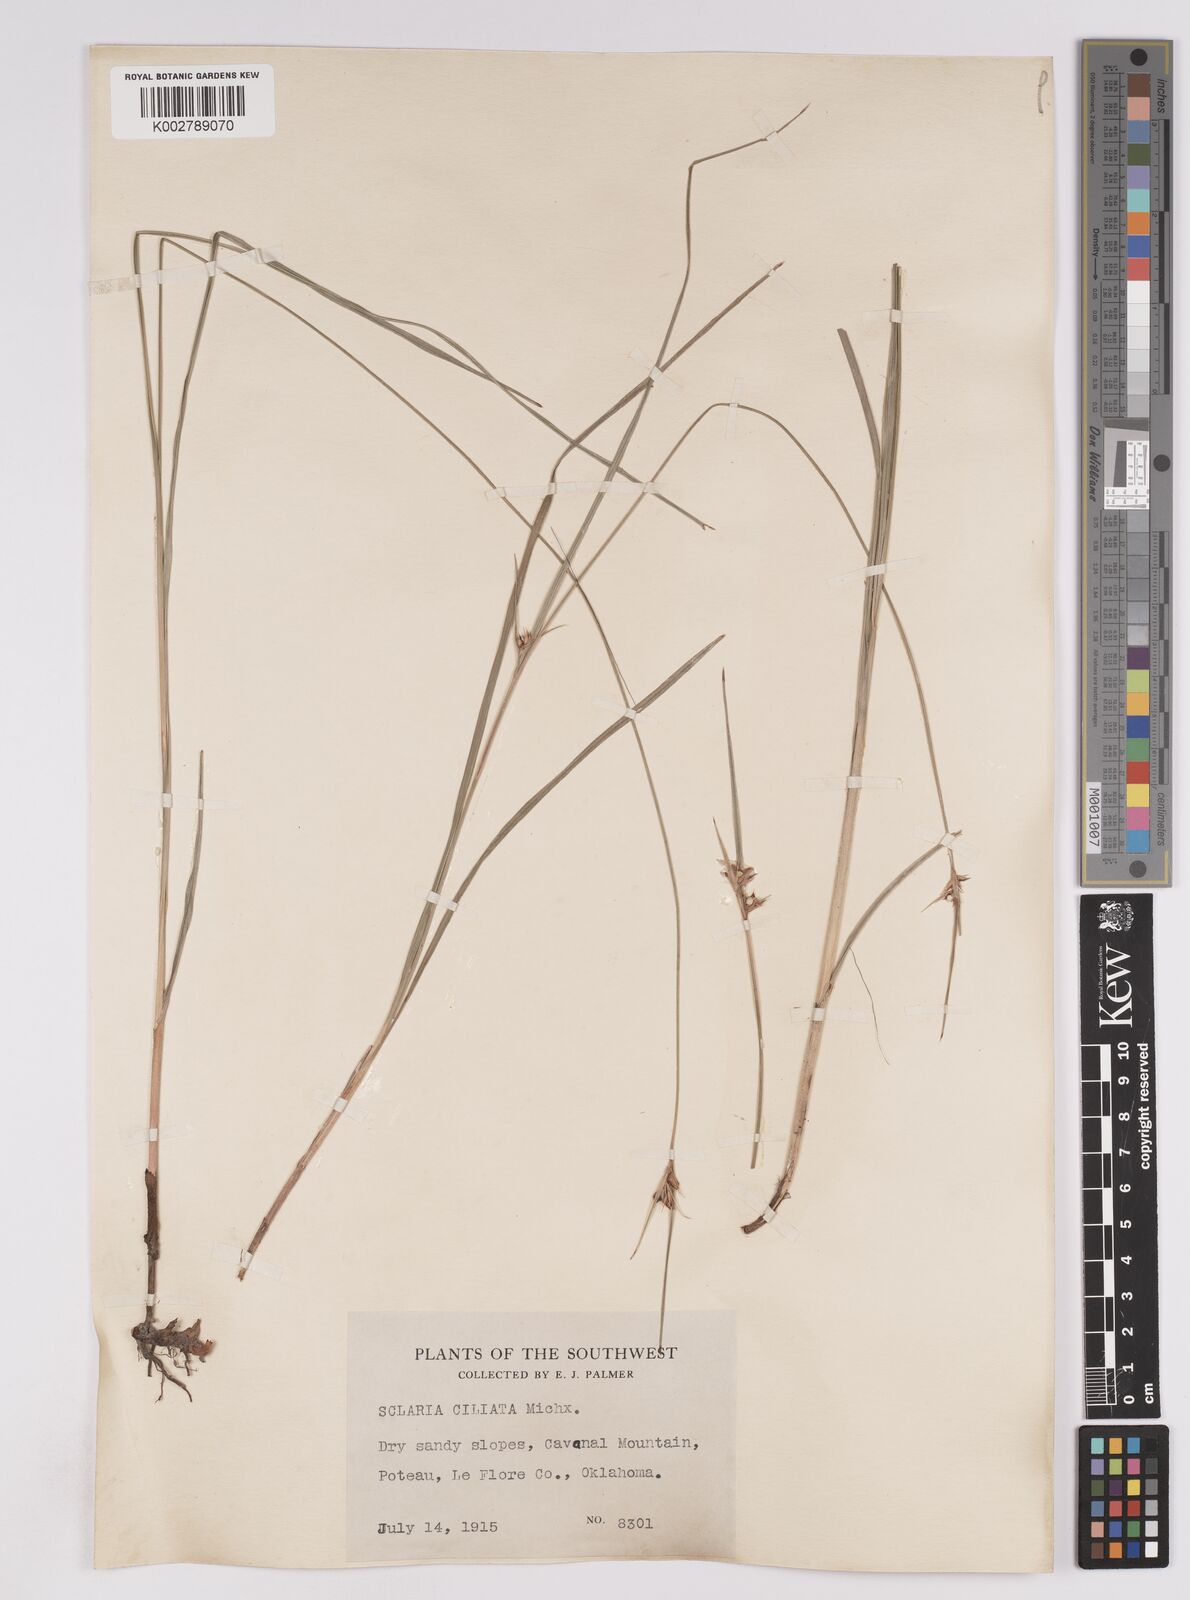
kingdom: Plantae
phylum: Tracheophyta
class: Liliopsida
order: Poales
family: Cyperaceae
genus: Scleria
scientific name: Scleria ciliata
